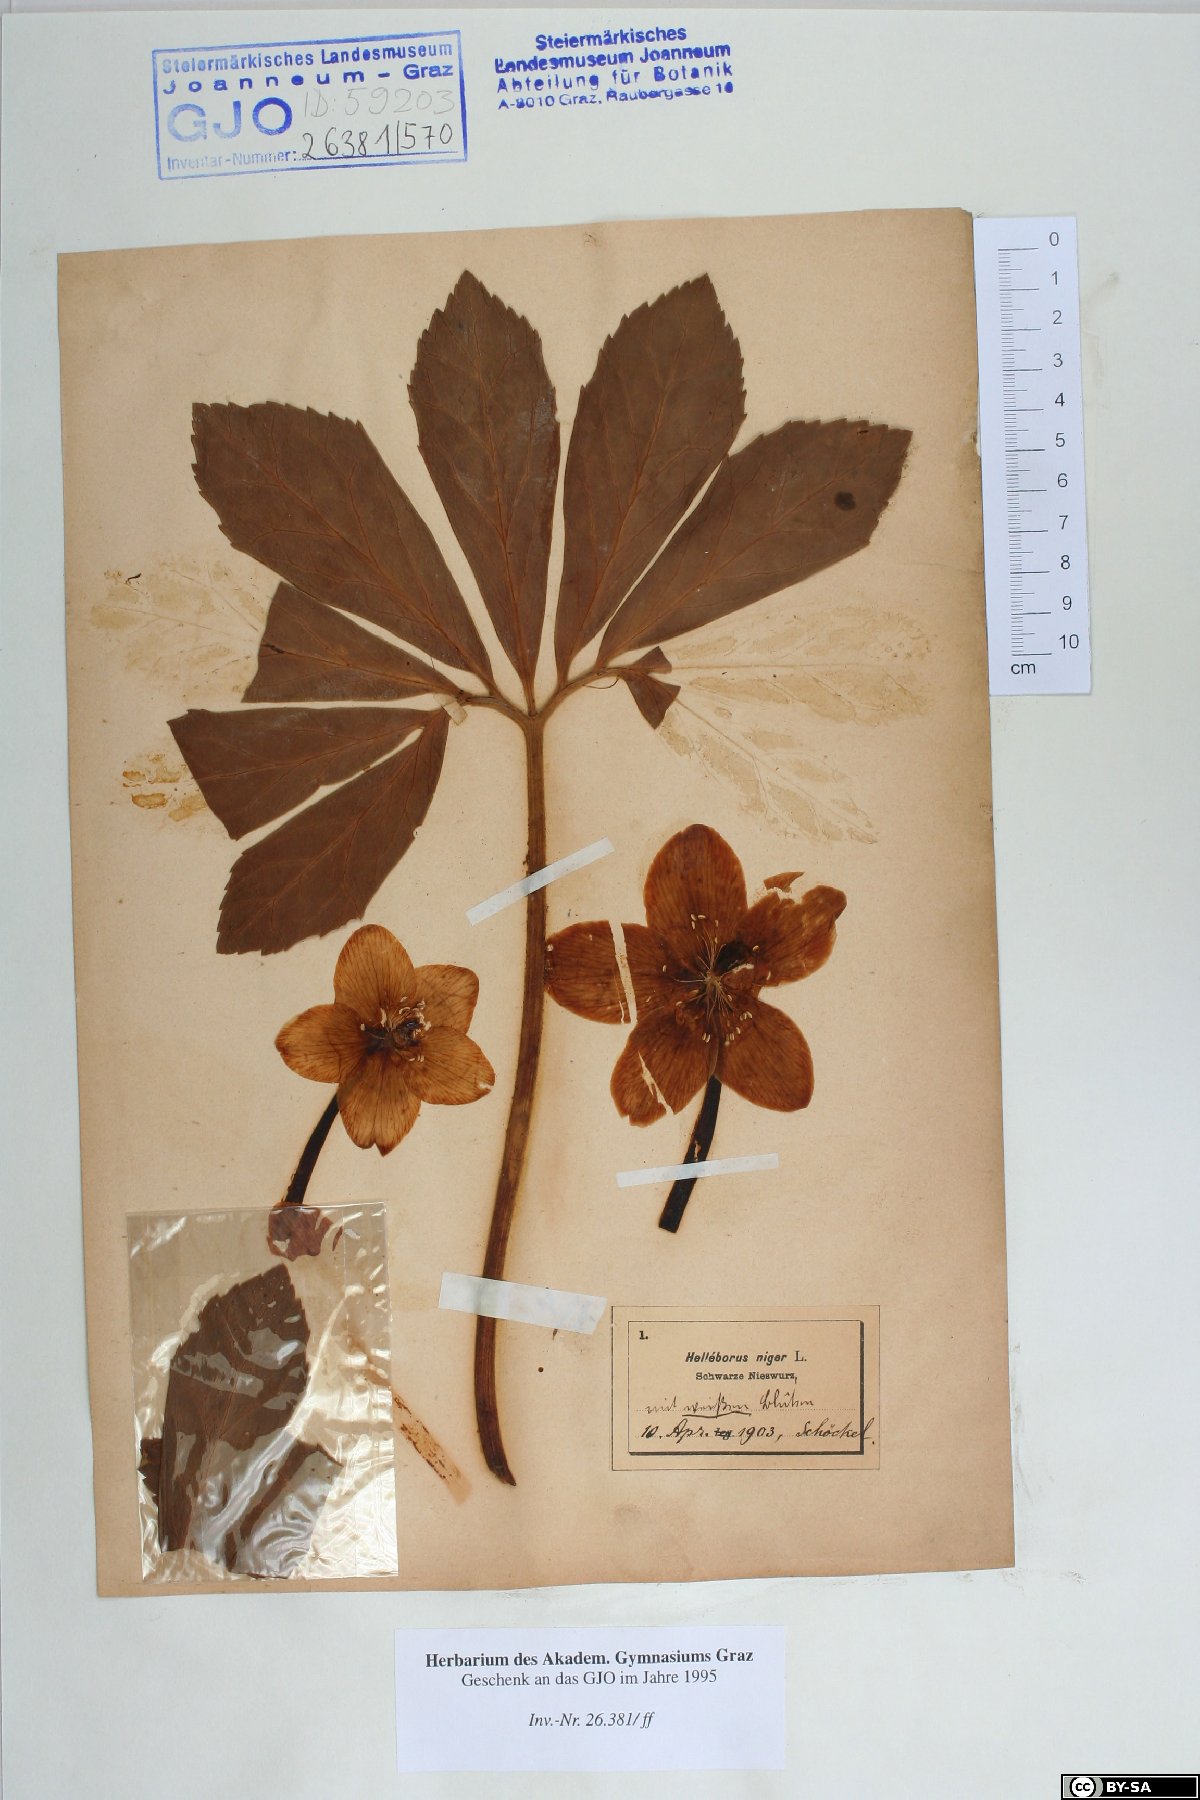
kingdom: Plantae
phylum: Tracheophyta
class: Magnoliopsida
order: Ranunculales
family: Ranunculaceae
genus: Helleborus
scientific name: Helleborus niger
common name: Black hellebore
